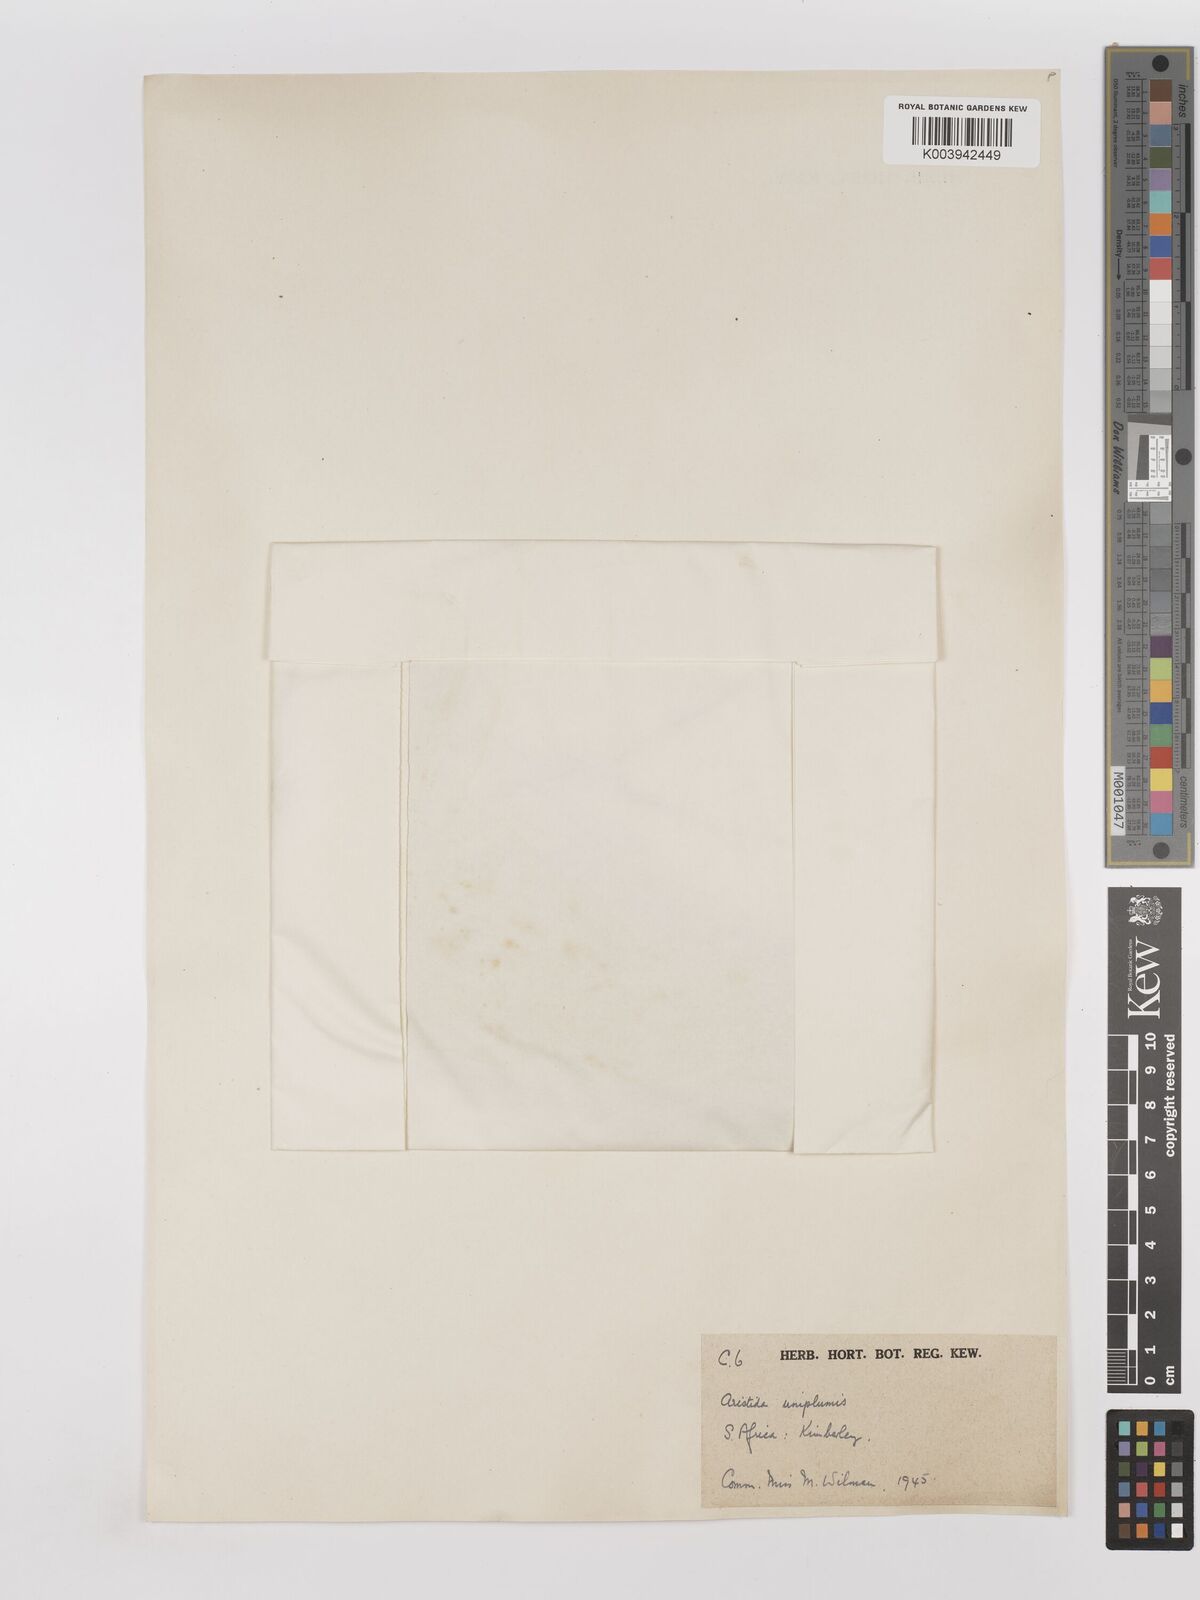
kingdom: Plantae
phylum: Tracheophyta
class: Liliopsida
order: Poales
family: Poaceae
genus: Stipagrostis
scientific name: Stipagrostis uniplumis
